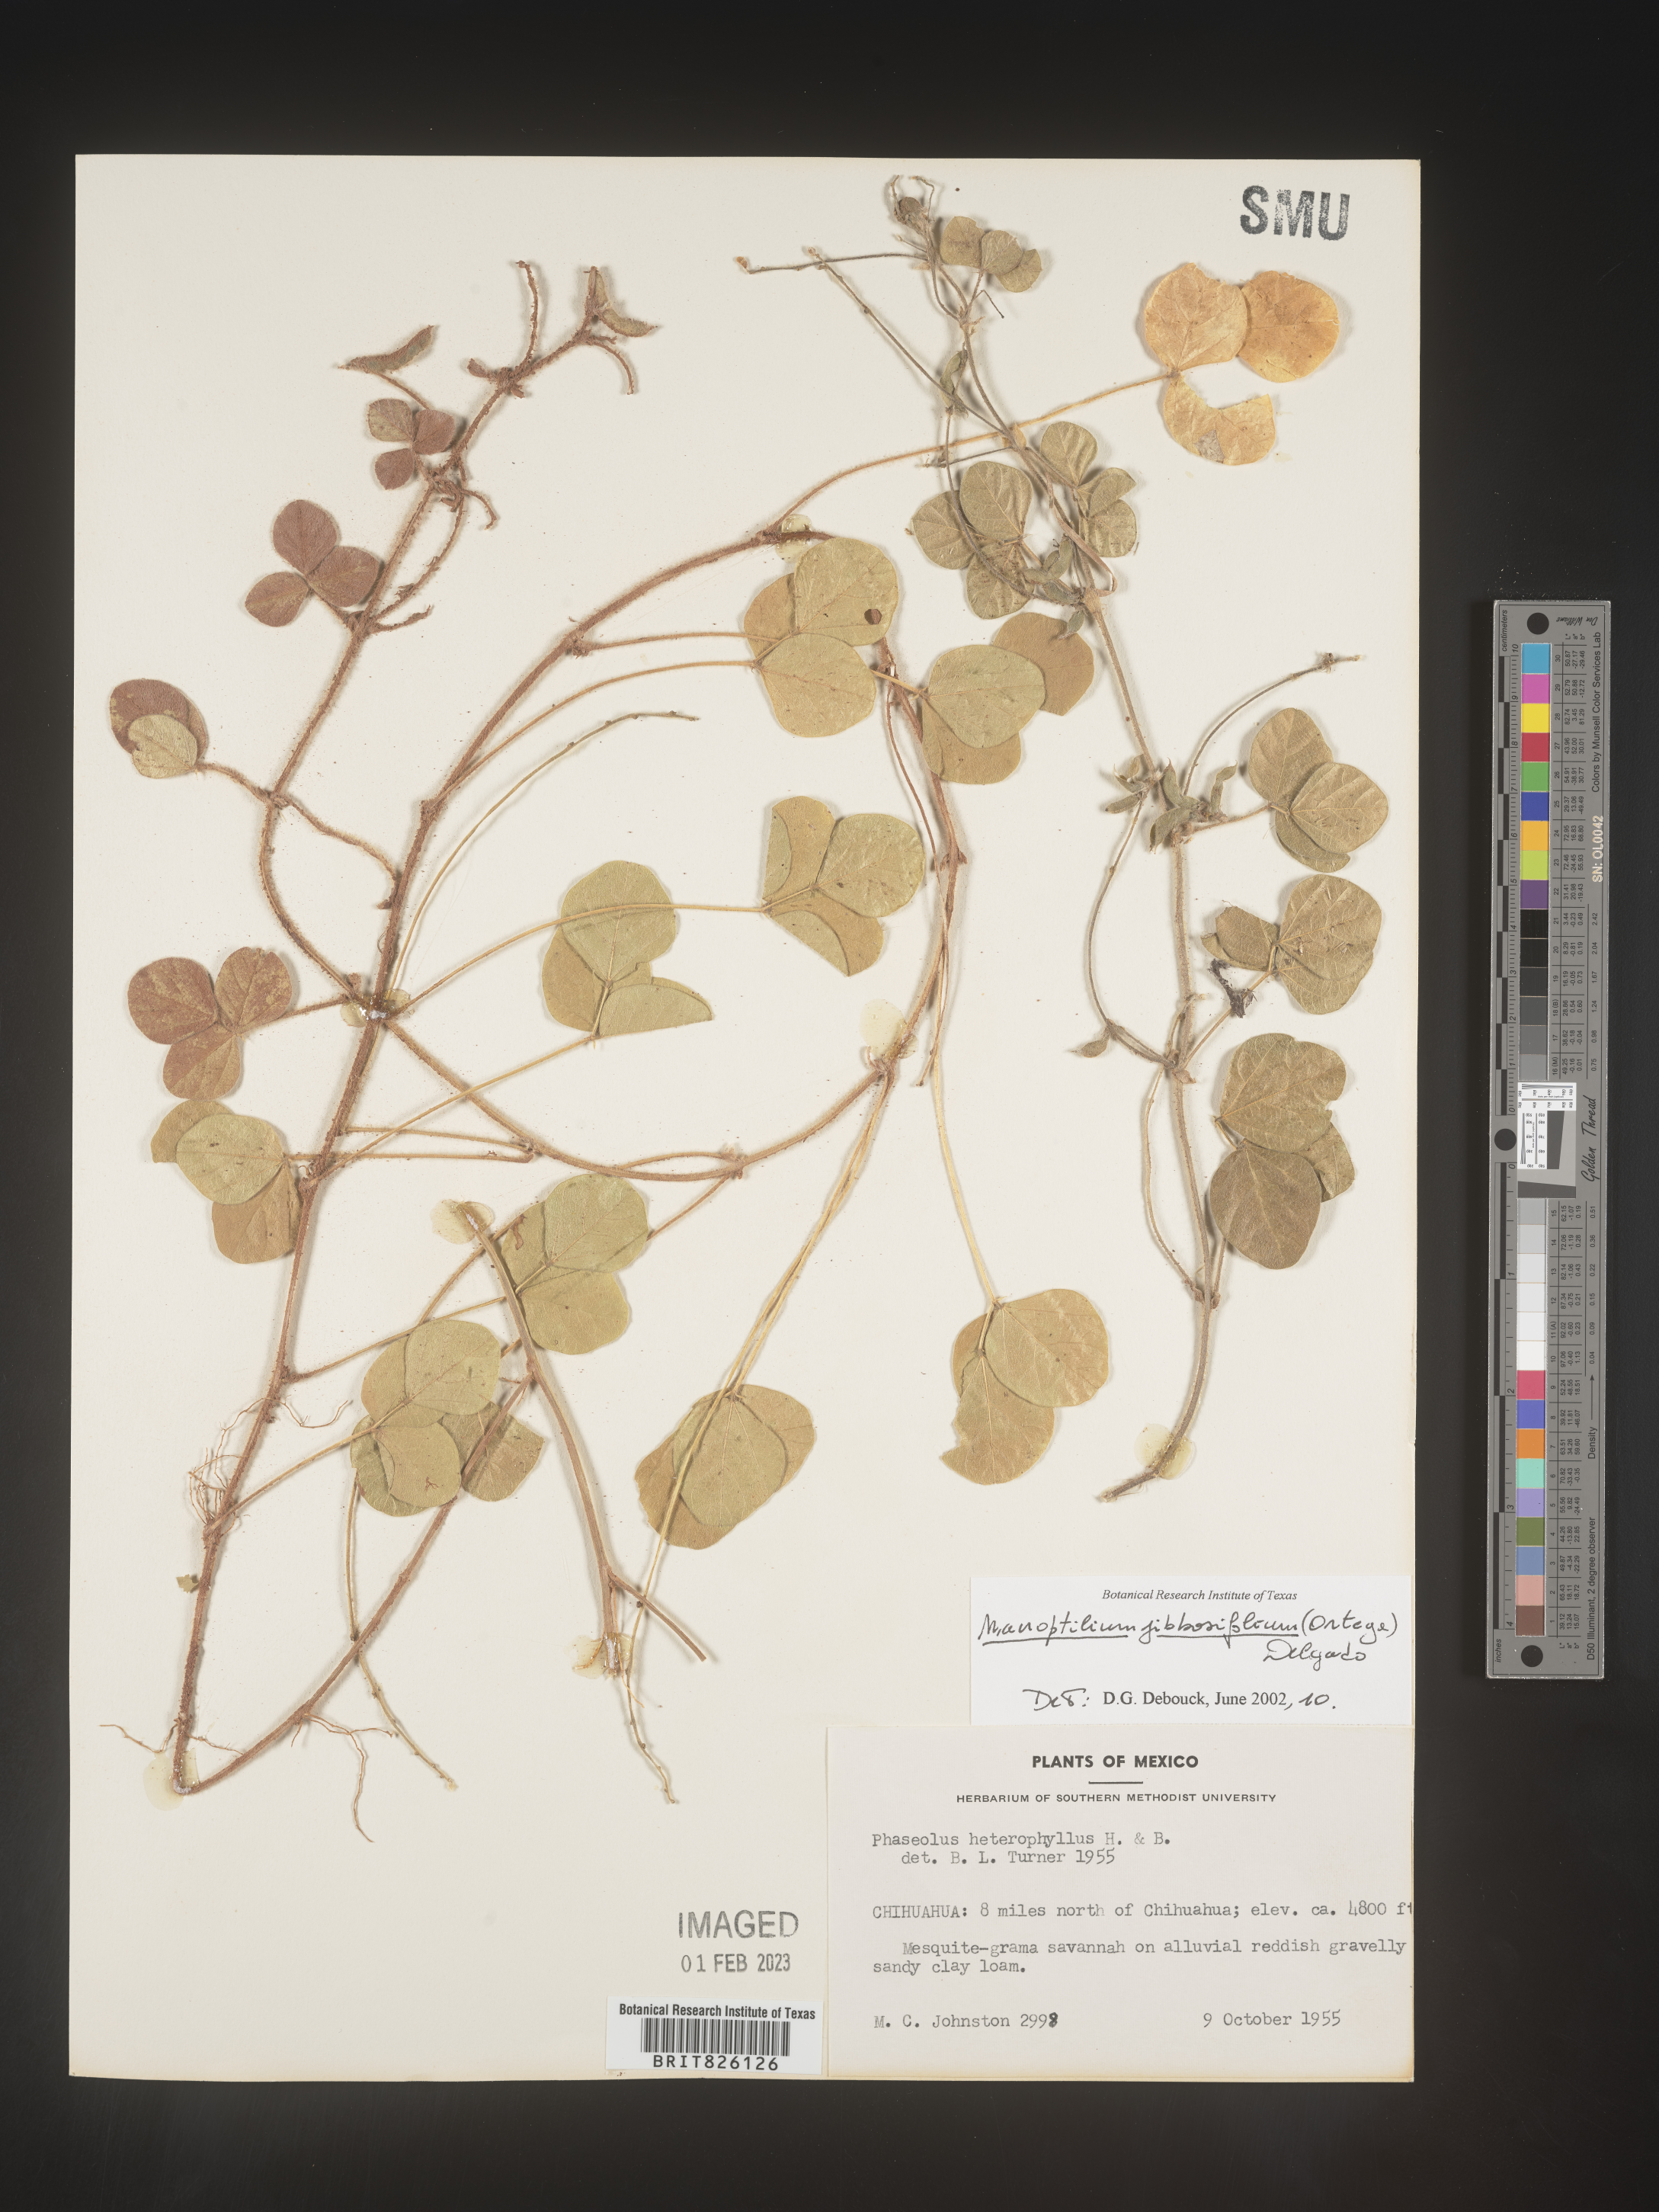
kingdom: Plantae
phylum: Tracheophyta
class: Magnoliopsida
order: Fabales
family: Fabaceae
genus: Macroptilium
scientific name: Macroptilium
